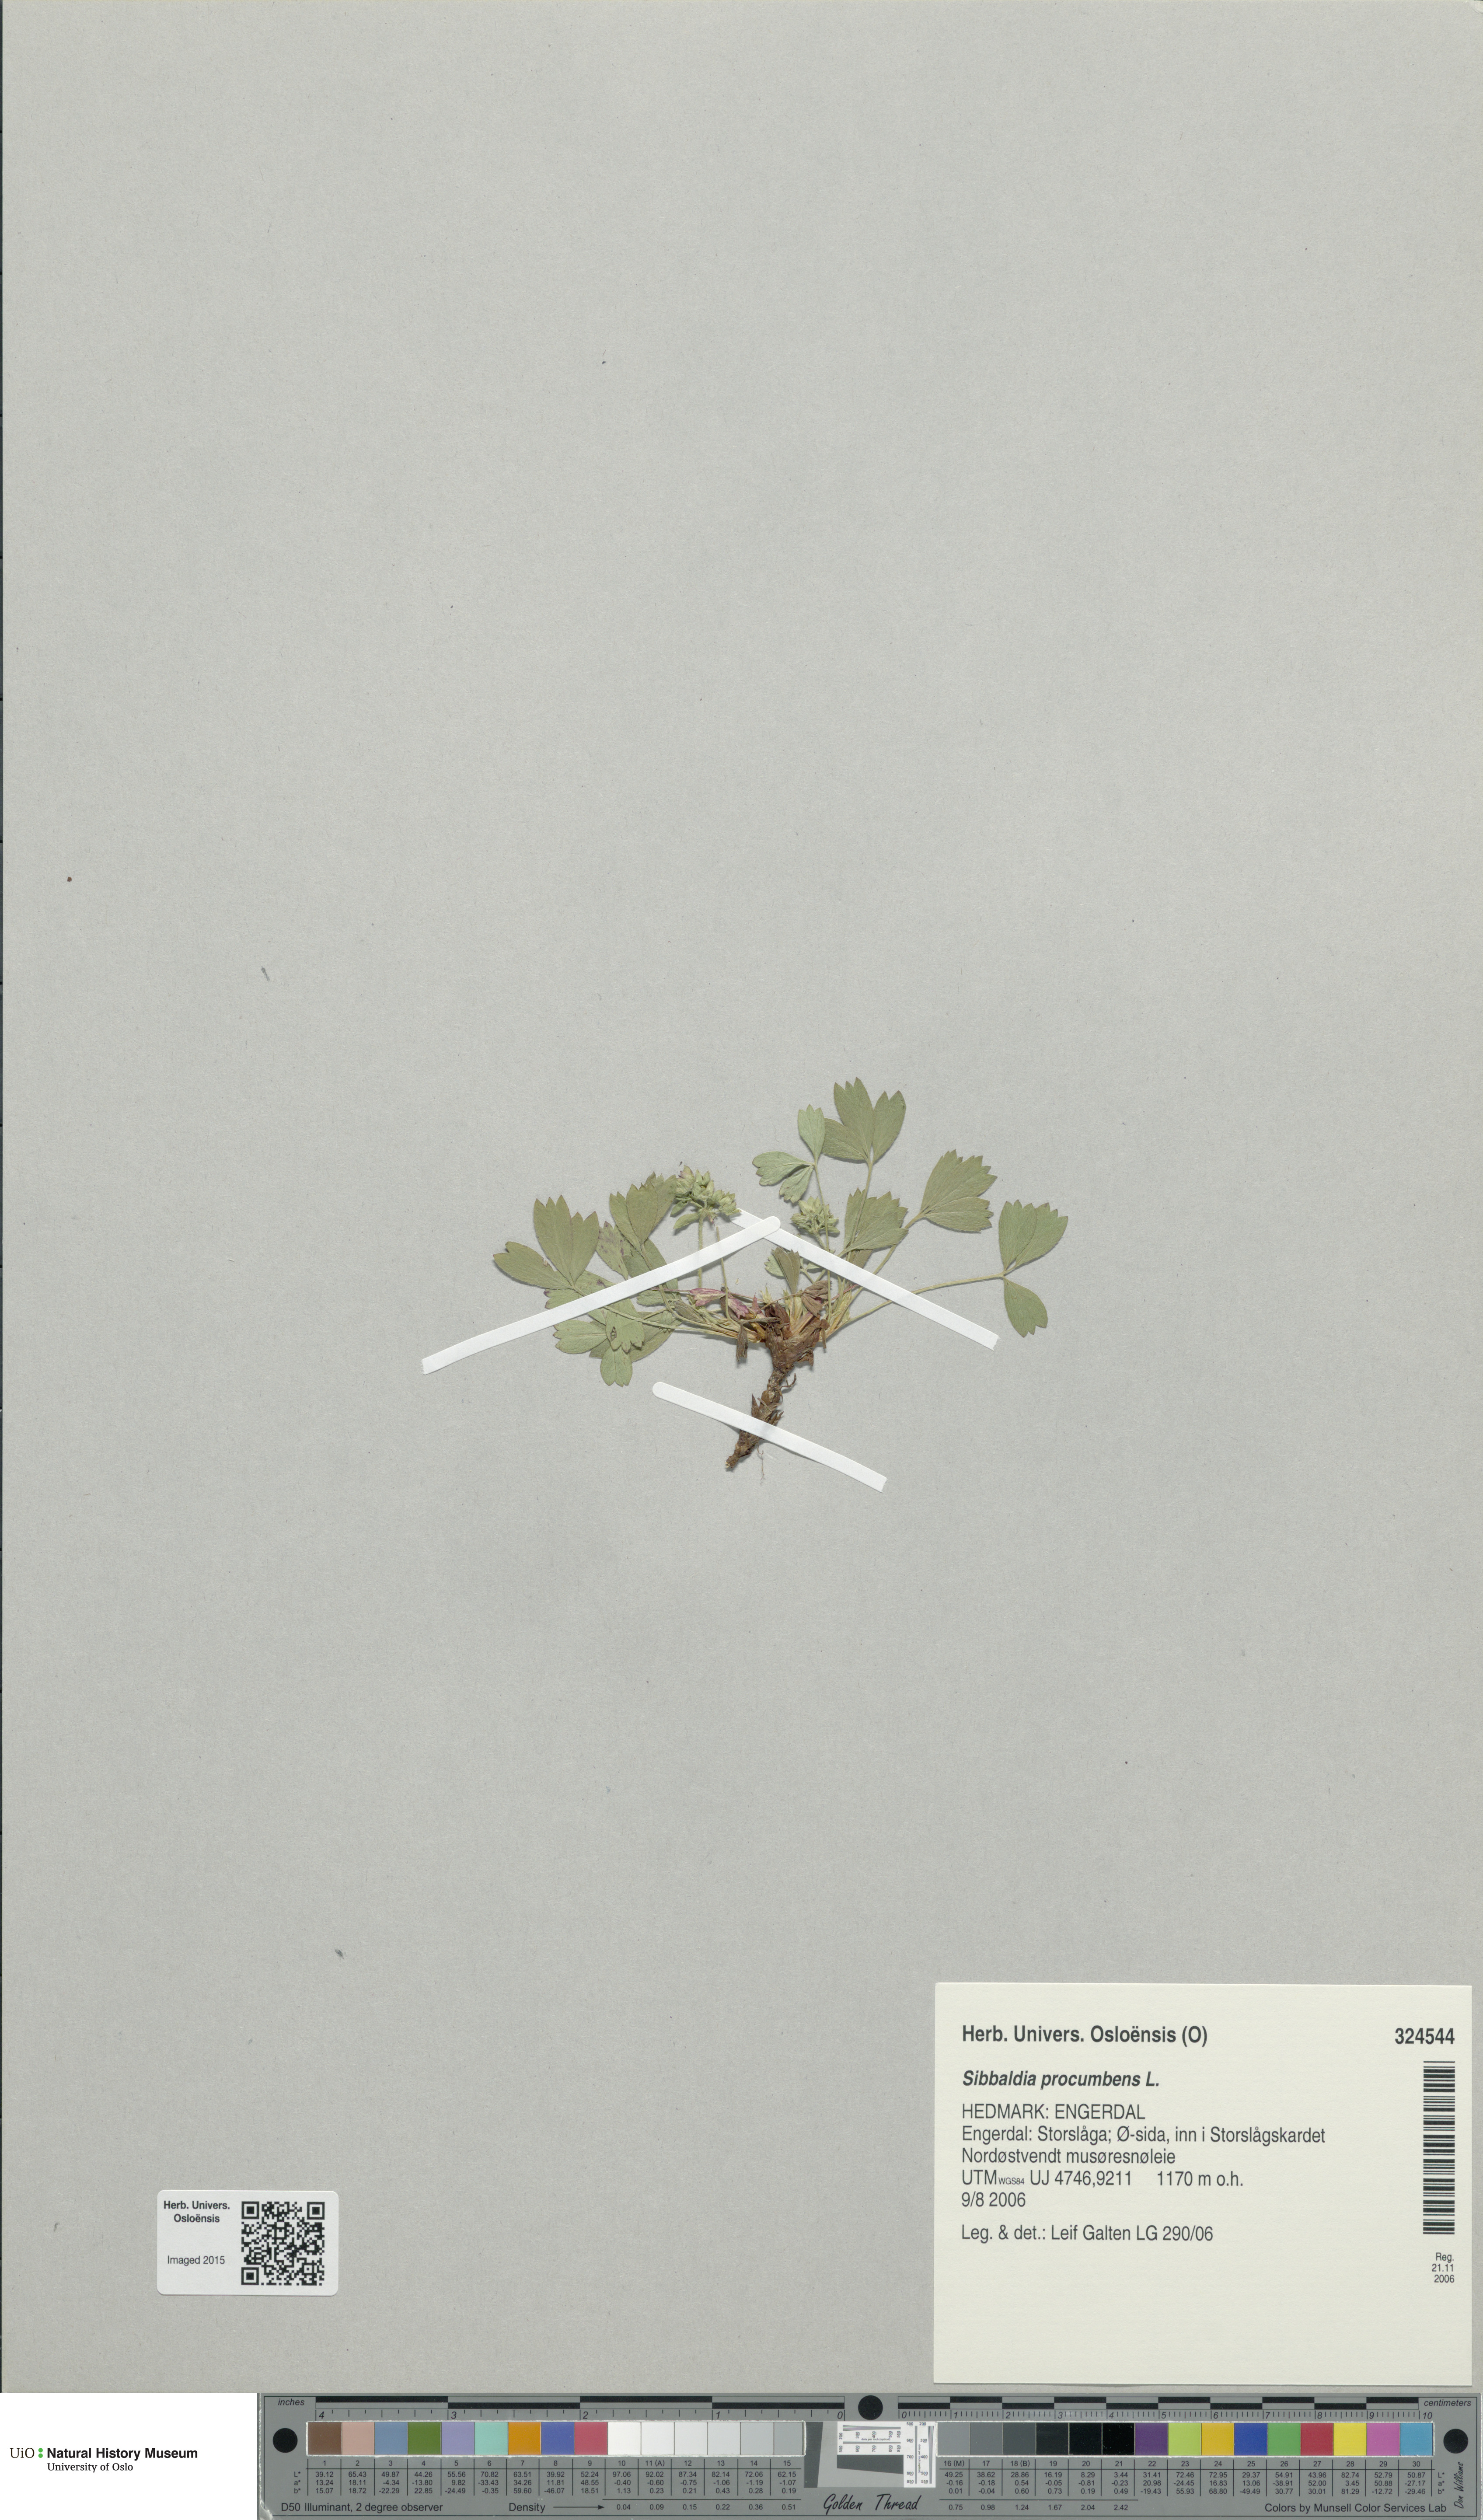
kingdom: Plantae
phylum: Tracheophyta
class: Magnoliopsida
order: Rosales
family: Rosaceae
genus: Sibbaldia
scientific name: Sibbaldia procumbens
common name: Creeping sibbaldia
